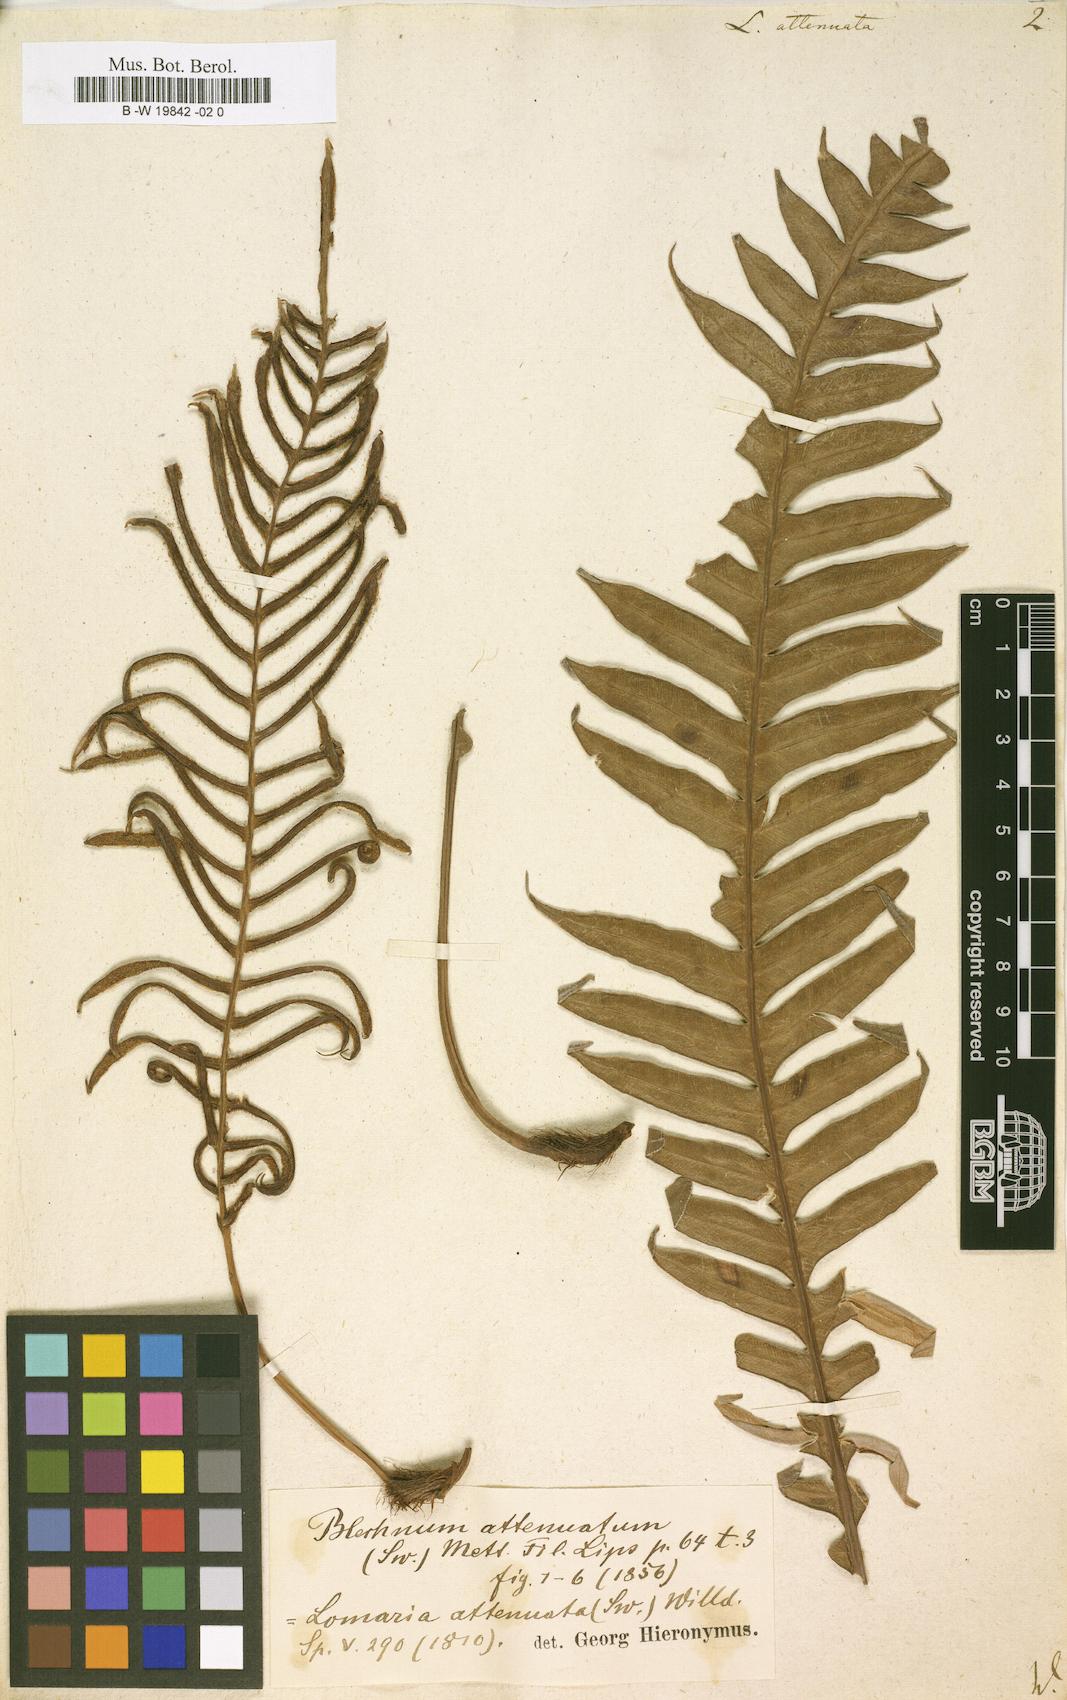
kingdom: Plantae
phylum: Tracheophyta
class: Polypodiopsida
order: Polypodiales
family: Blechnaceae
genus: Lomaridium
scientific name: Lomaridium attenuatum
